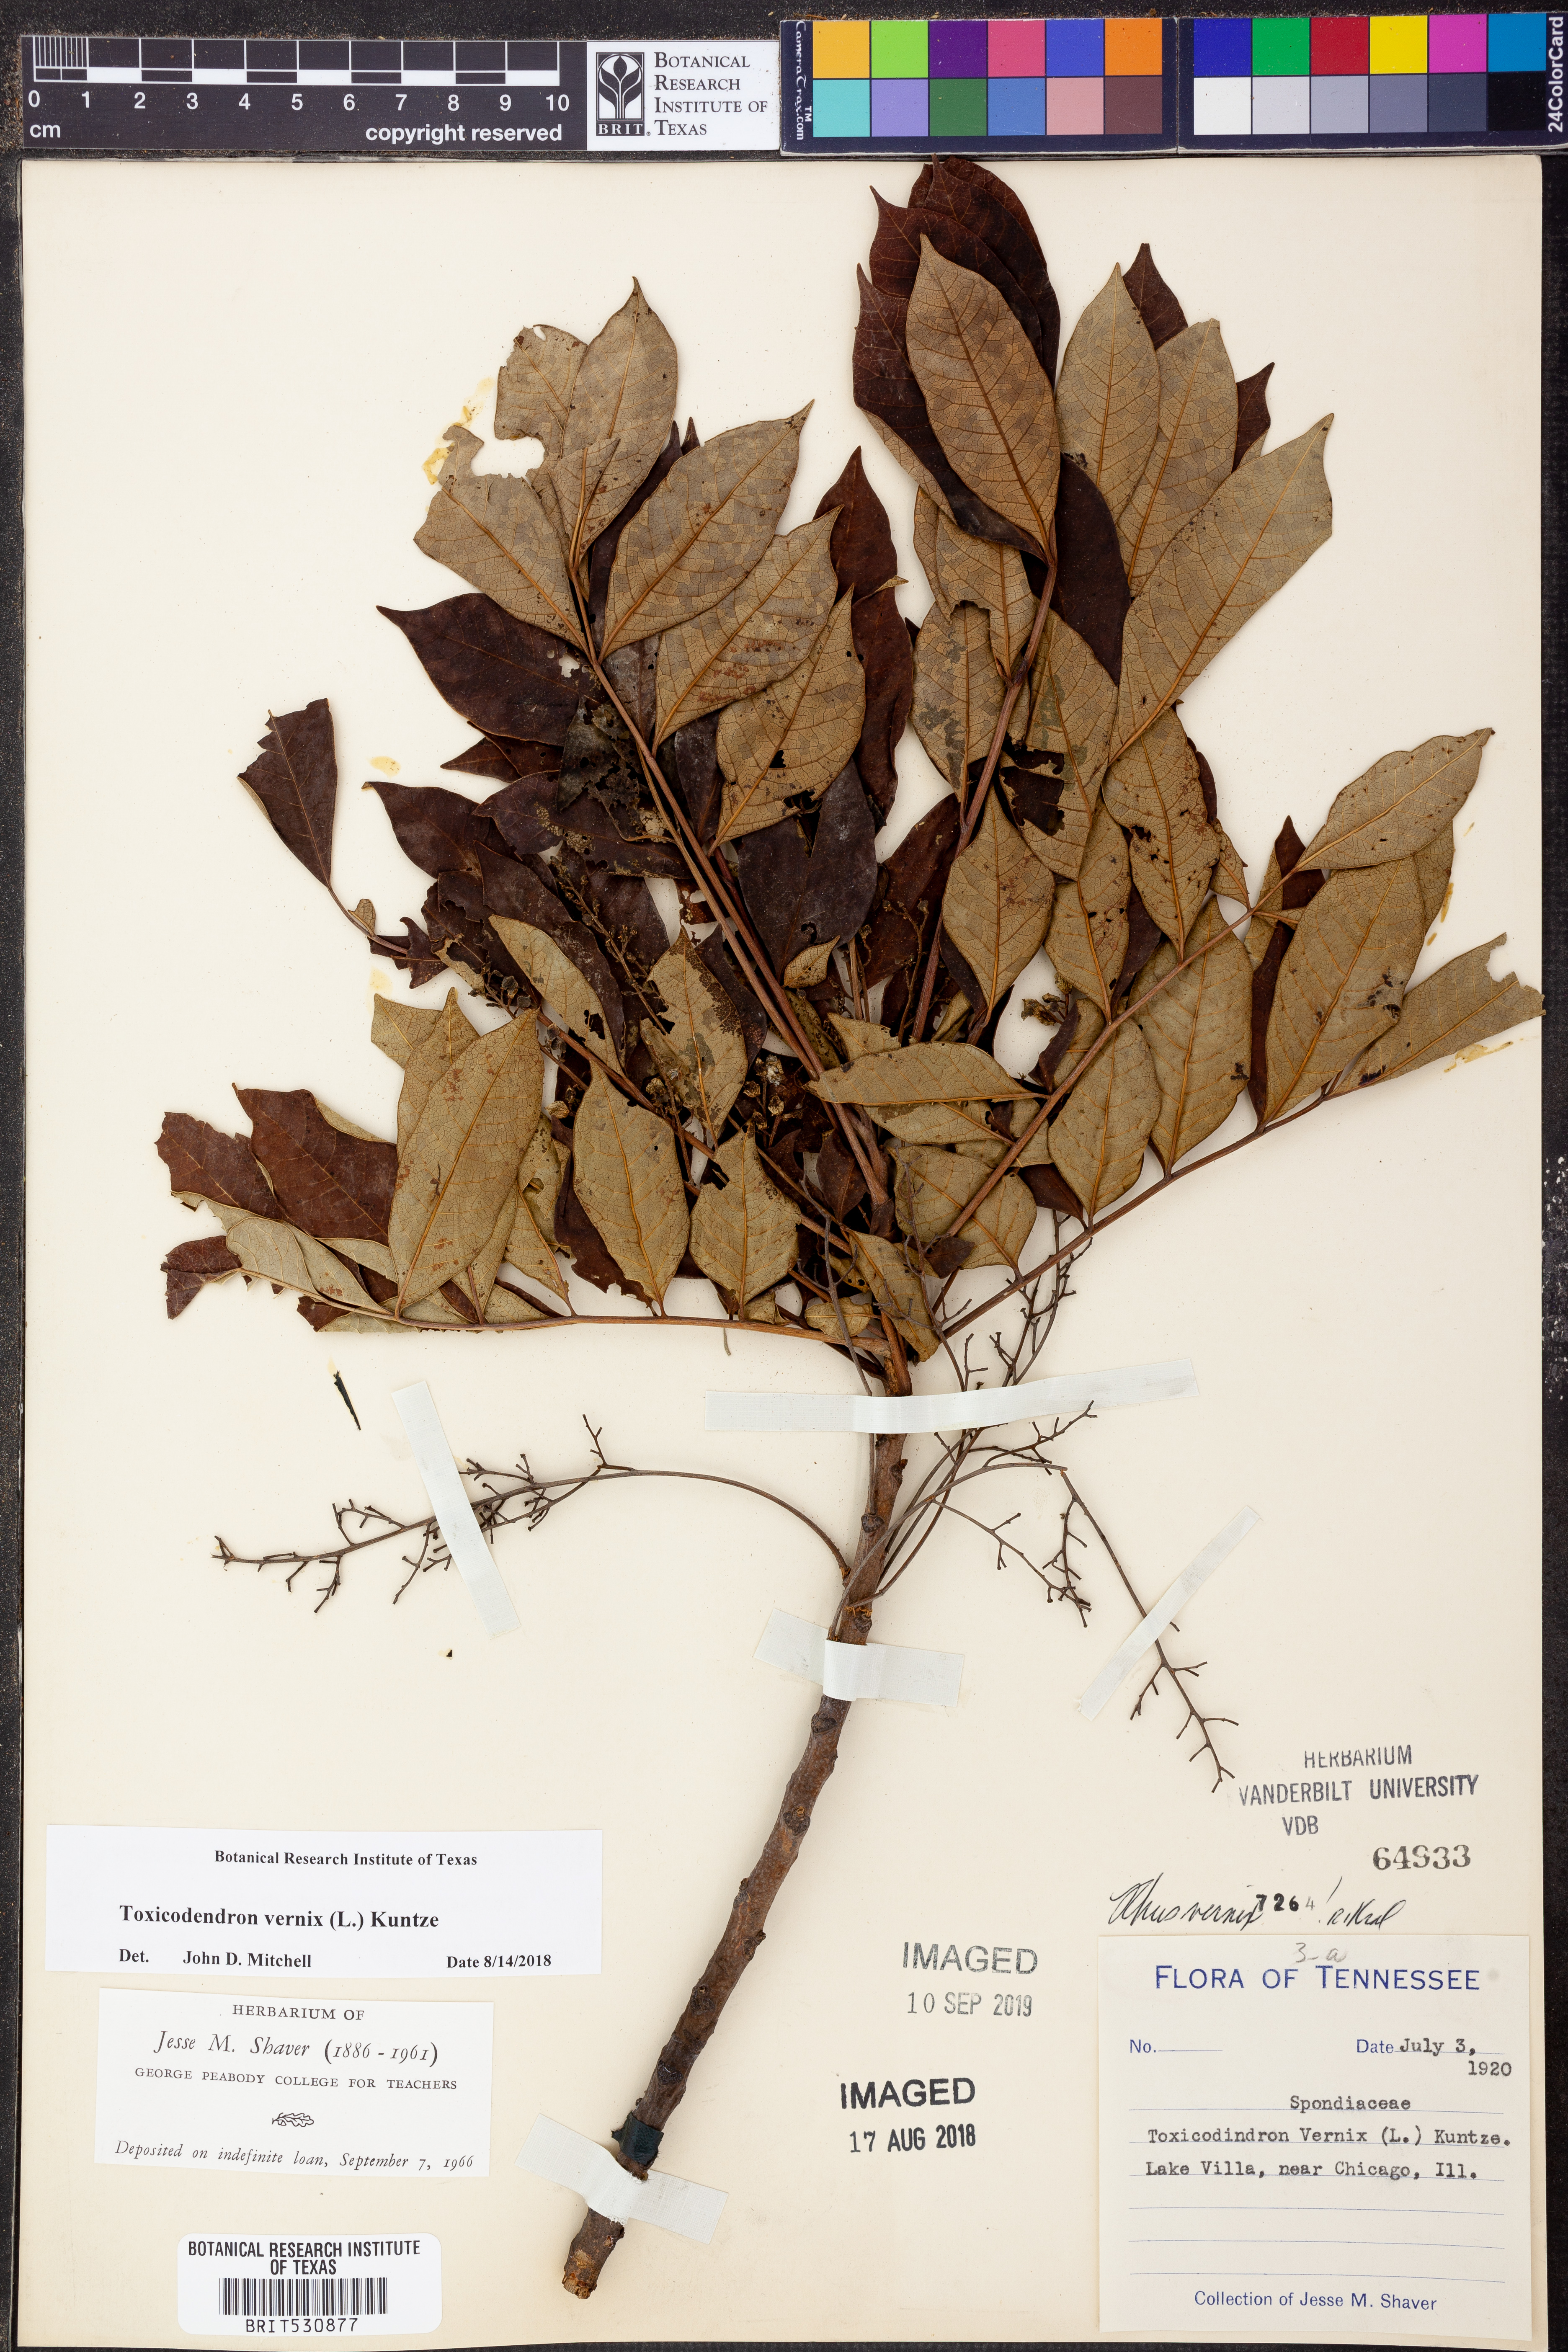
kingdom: Plantae
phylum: Tracheophyta
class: Magnoliopsida
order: Sapindales
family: Anacardiaceae
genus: Toxicodendron
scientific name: Toxicodendron vernix
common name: Poison sumac
